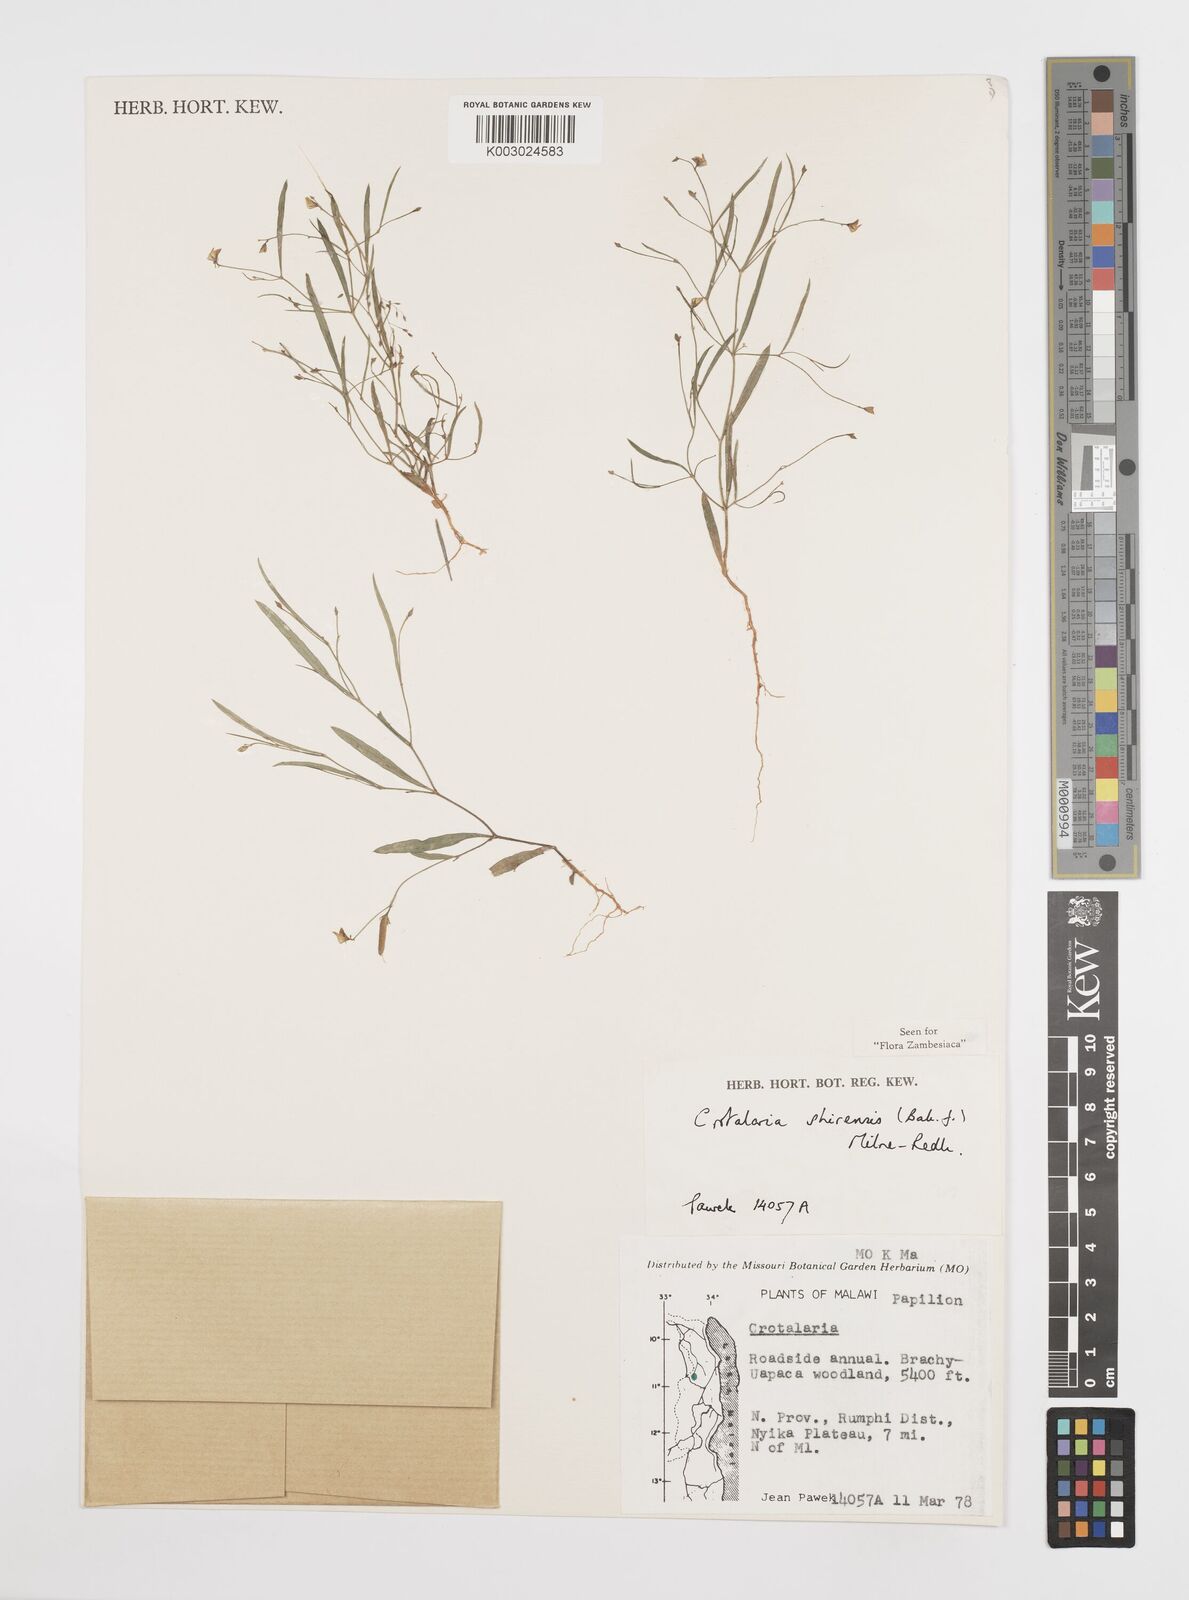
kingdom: Plantae
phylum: Tracheophyta
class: Magnoliopsida
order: Fabales
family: Fabaceae
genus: Crotalaria
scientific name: Crotalaria shirensis
